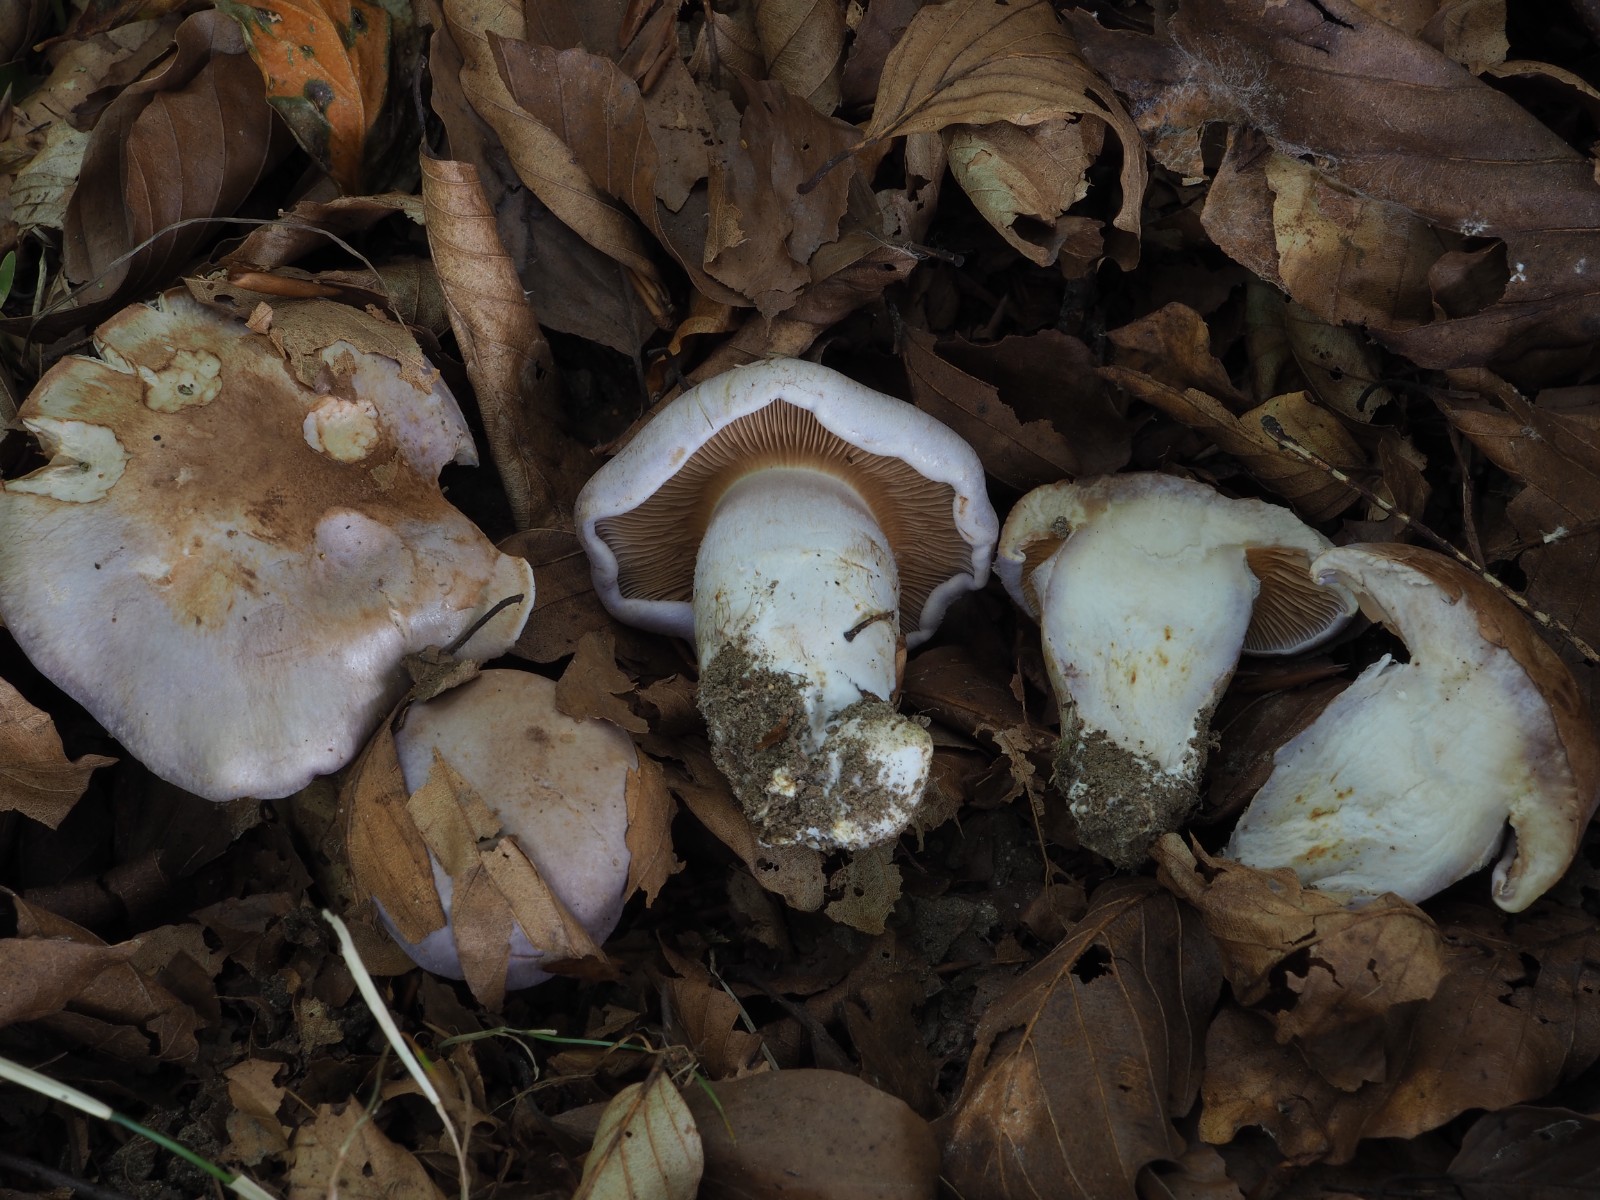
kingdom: Fungi
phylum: Basidiomycota
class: Agaricomycetes
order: Agaricales
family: Cortinariaceae
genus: Cortinarius
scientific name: Cortinarius largus
